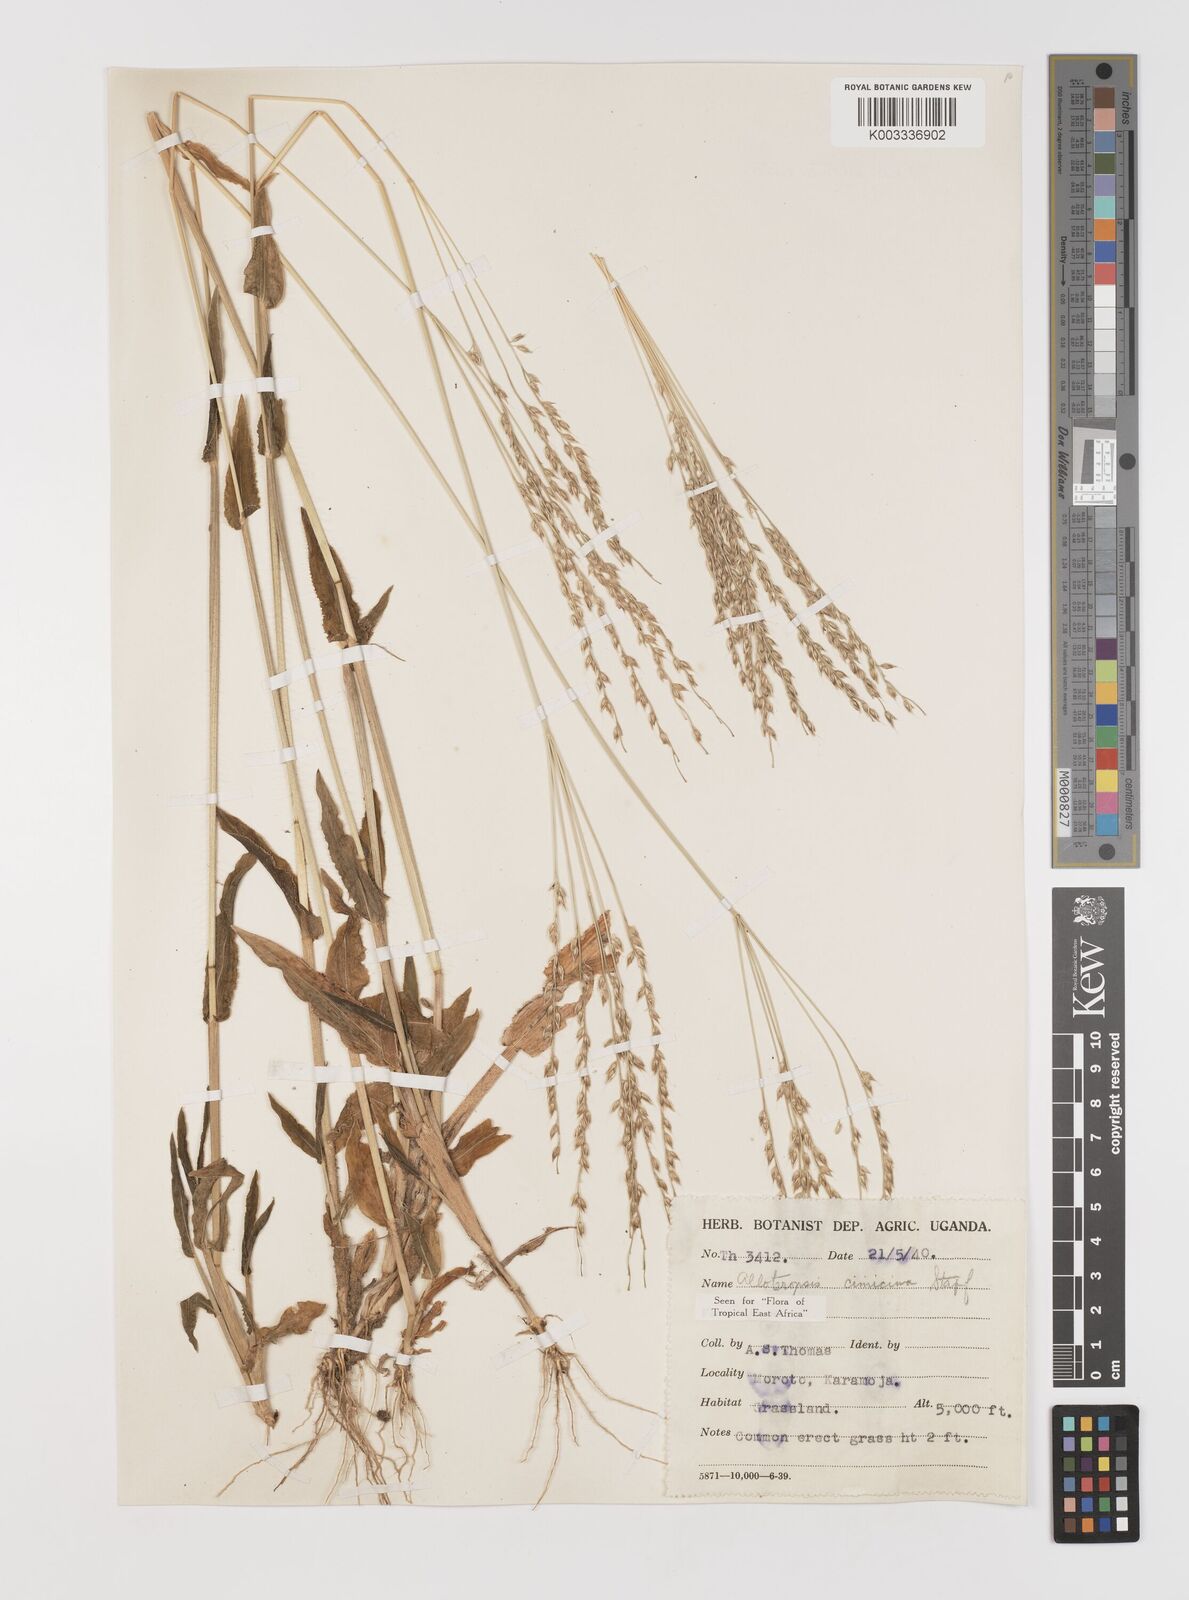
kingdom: Plantae
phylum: Tracheophyta
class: Liliopsida
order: Poales
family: Poaceae
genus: Alloteropsis
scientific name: Alloteropsis cimicina
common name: Summergrass
